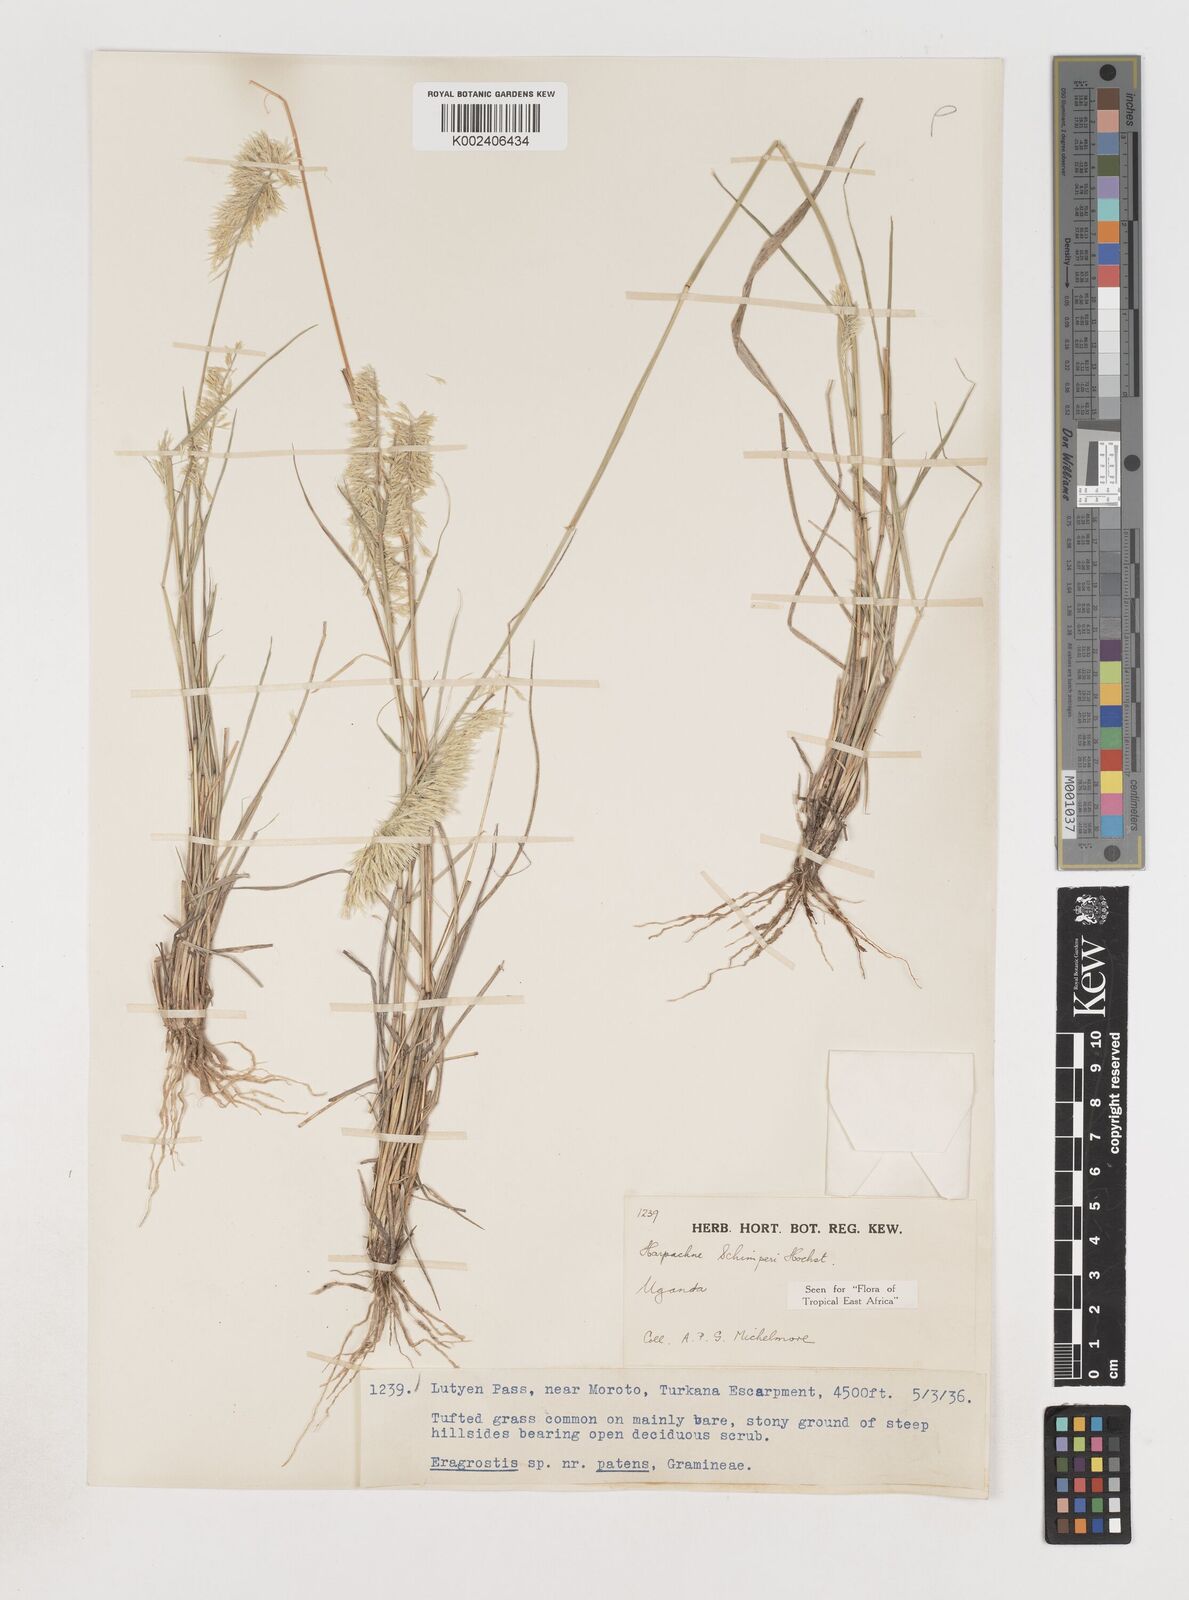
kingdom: Plantae
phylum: Tracheophyta
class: Liliopsida
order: Poales
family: Poaceae
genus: Harpachne
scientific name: Harpachne schimperi
